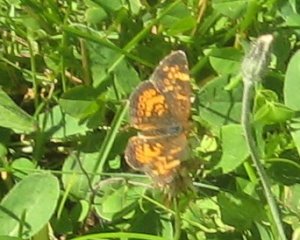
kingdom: Animalia
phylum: Arthropoda
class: Insecta
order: Lepidoptera
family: Nymphalidae
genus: Phyciodes
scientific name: Phyciodes tharos
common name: Northern Crescent
